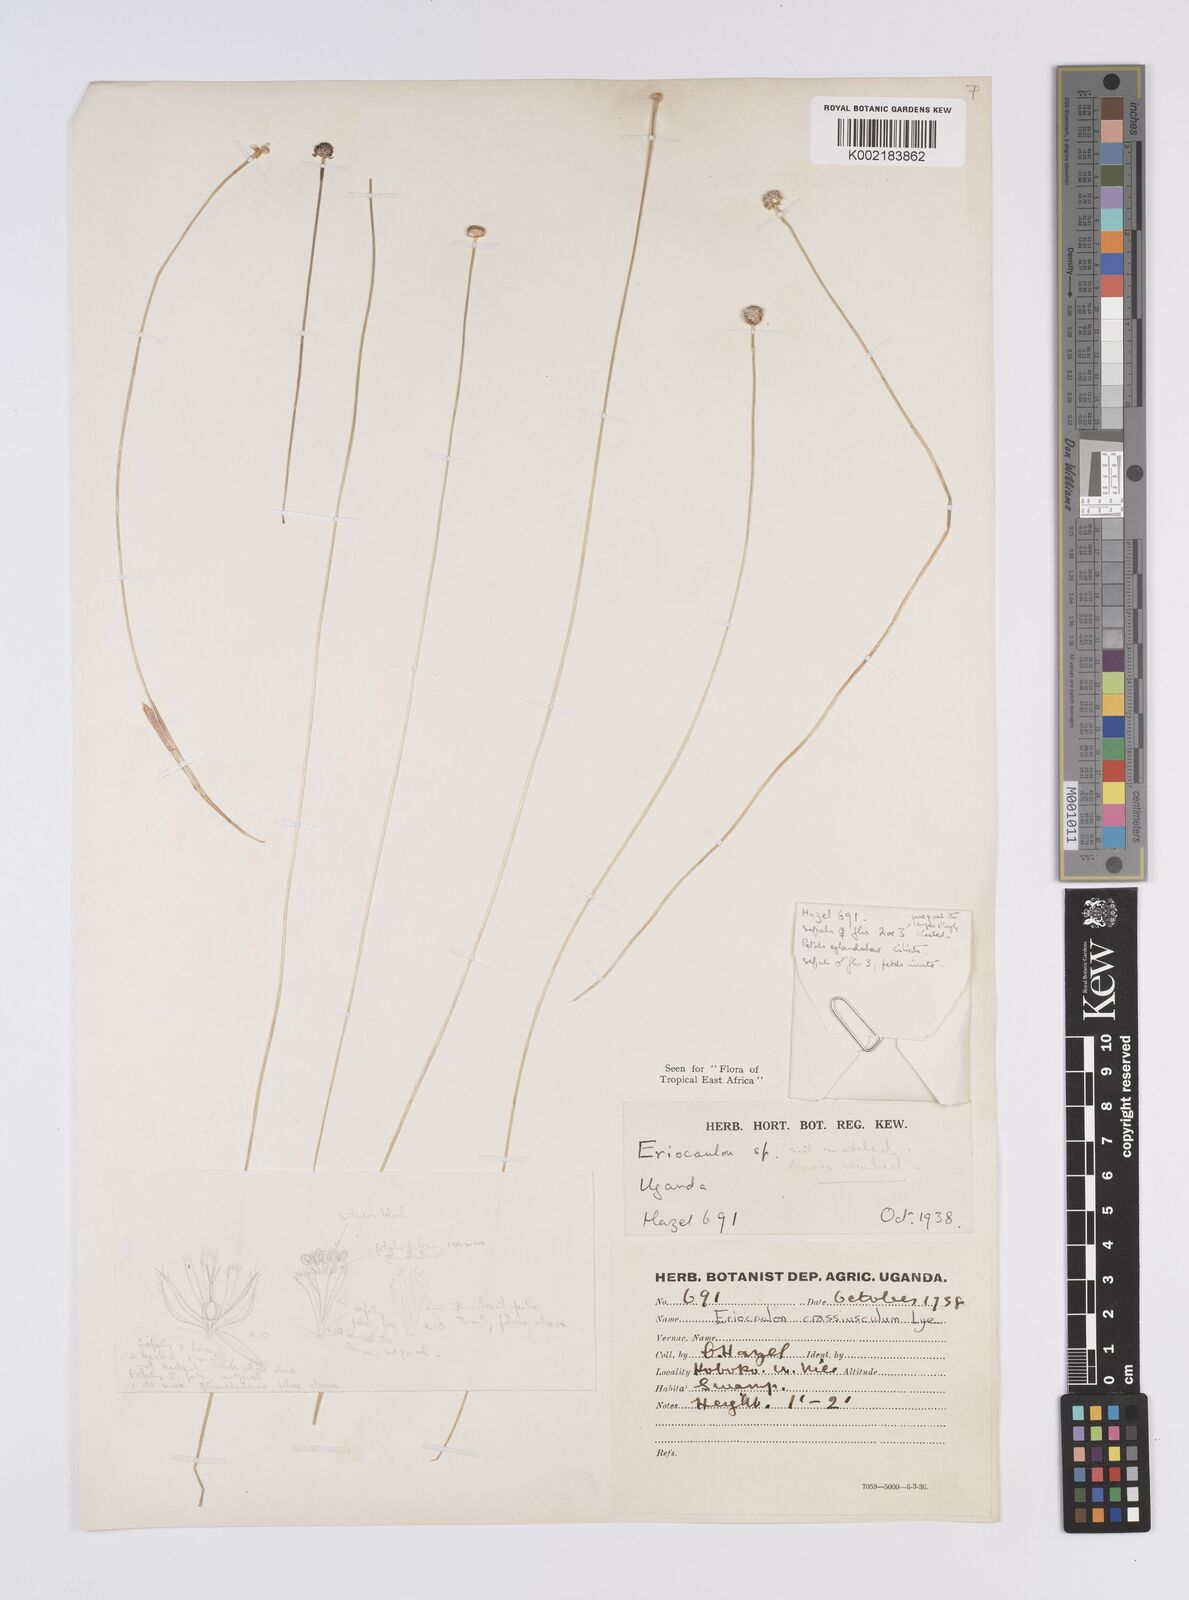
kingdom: Plantae
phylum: Tracheophyta
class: Liliopsida
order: Poales
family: Eriocaulaceae
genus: Eriocaulon
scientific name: Eriocaulon crassiusculum
